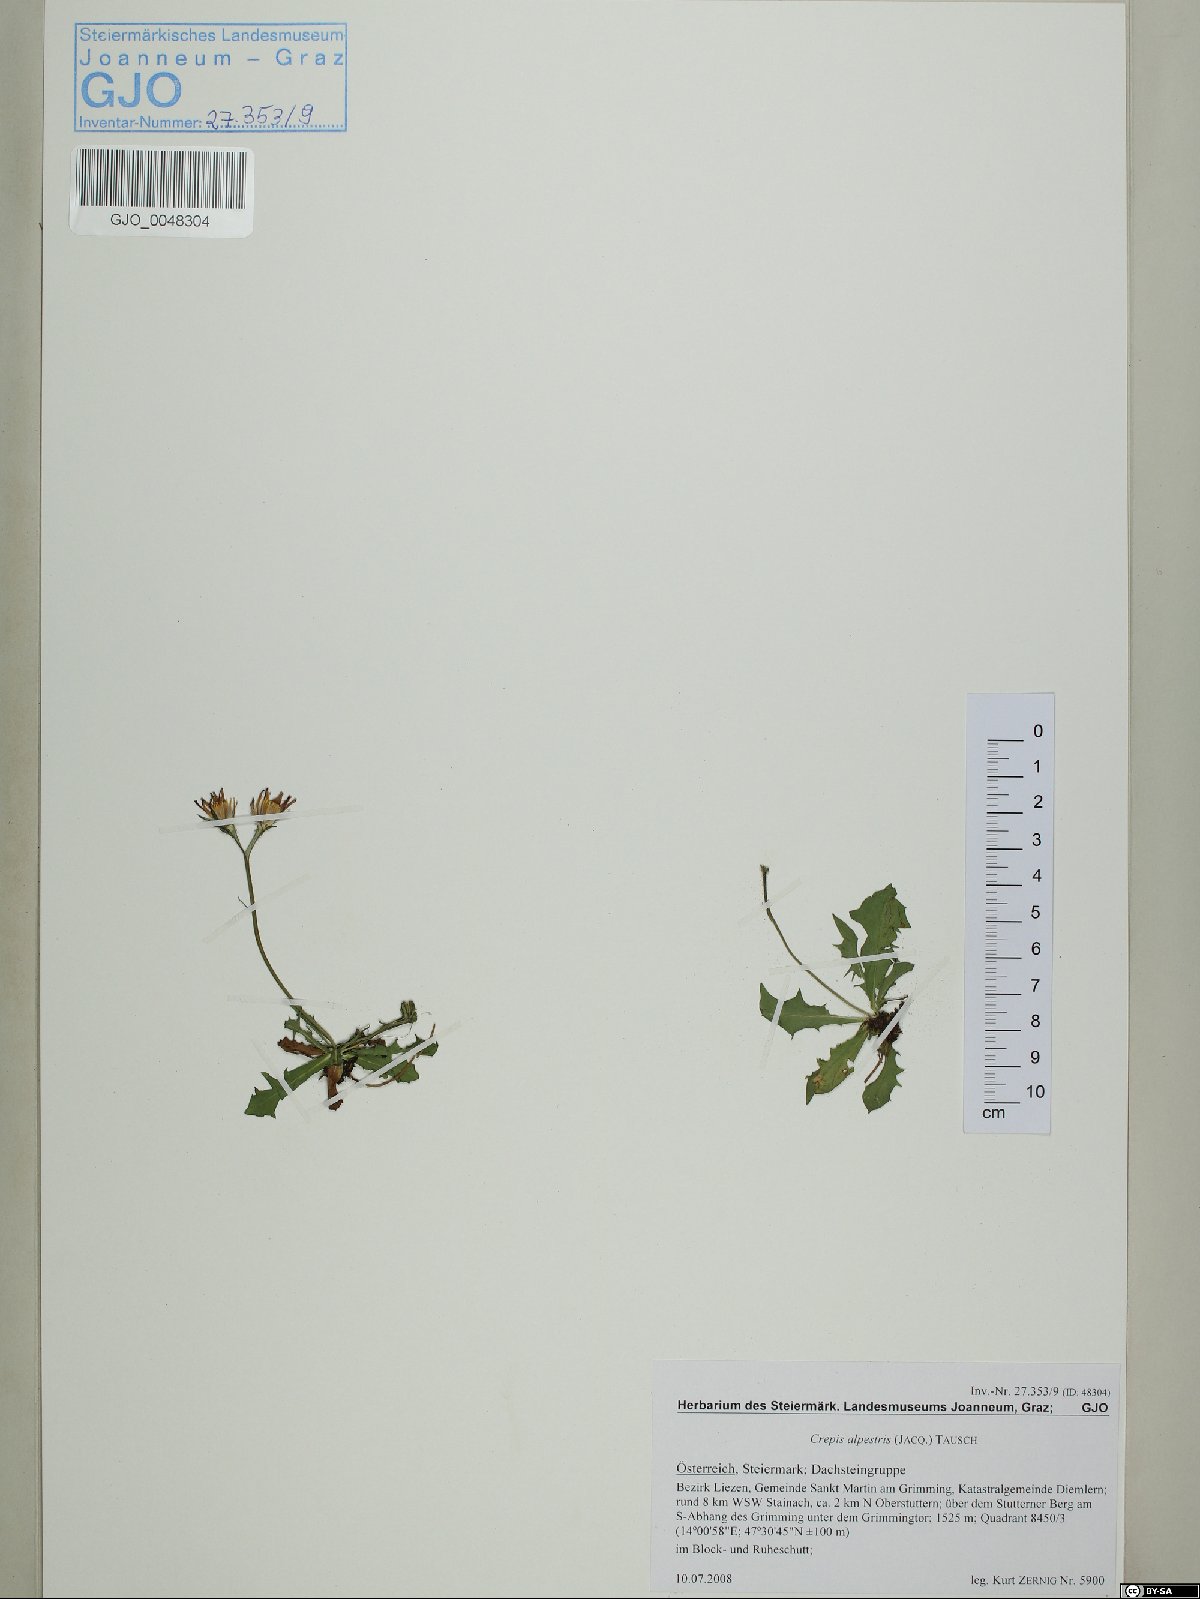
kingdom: Plantae
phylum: Tracheophyta
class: Magnoliopsida
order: Asterales
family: Asteraceae
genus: Crepis
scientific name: Crepis jacquinii
